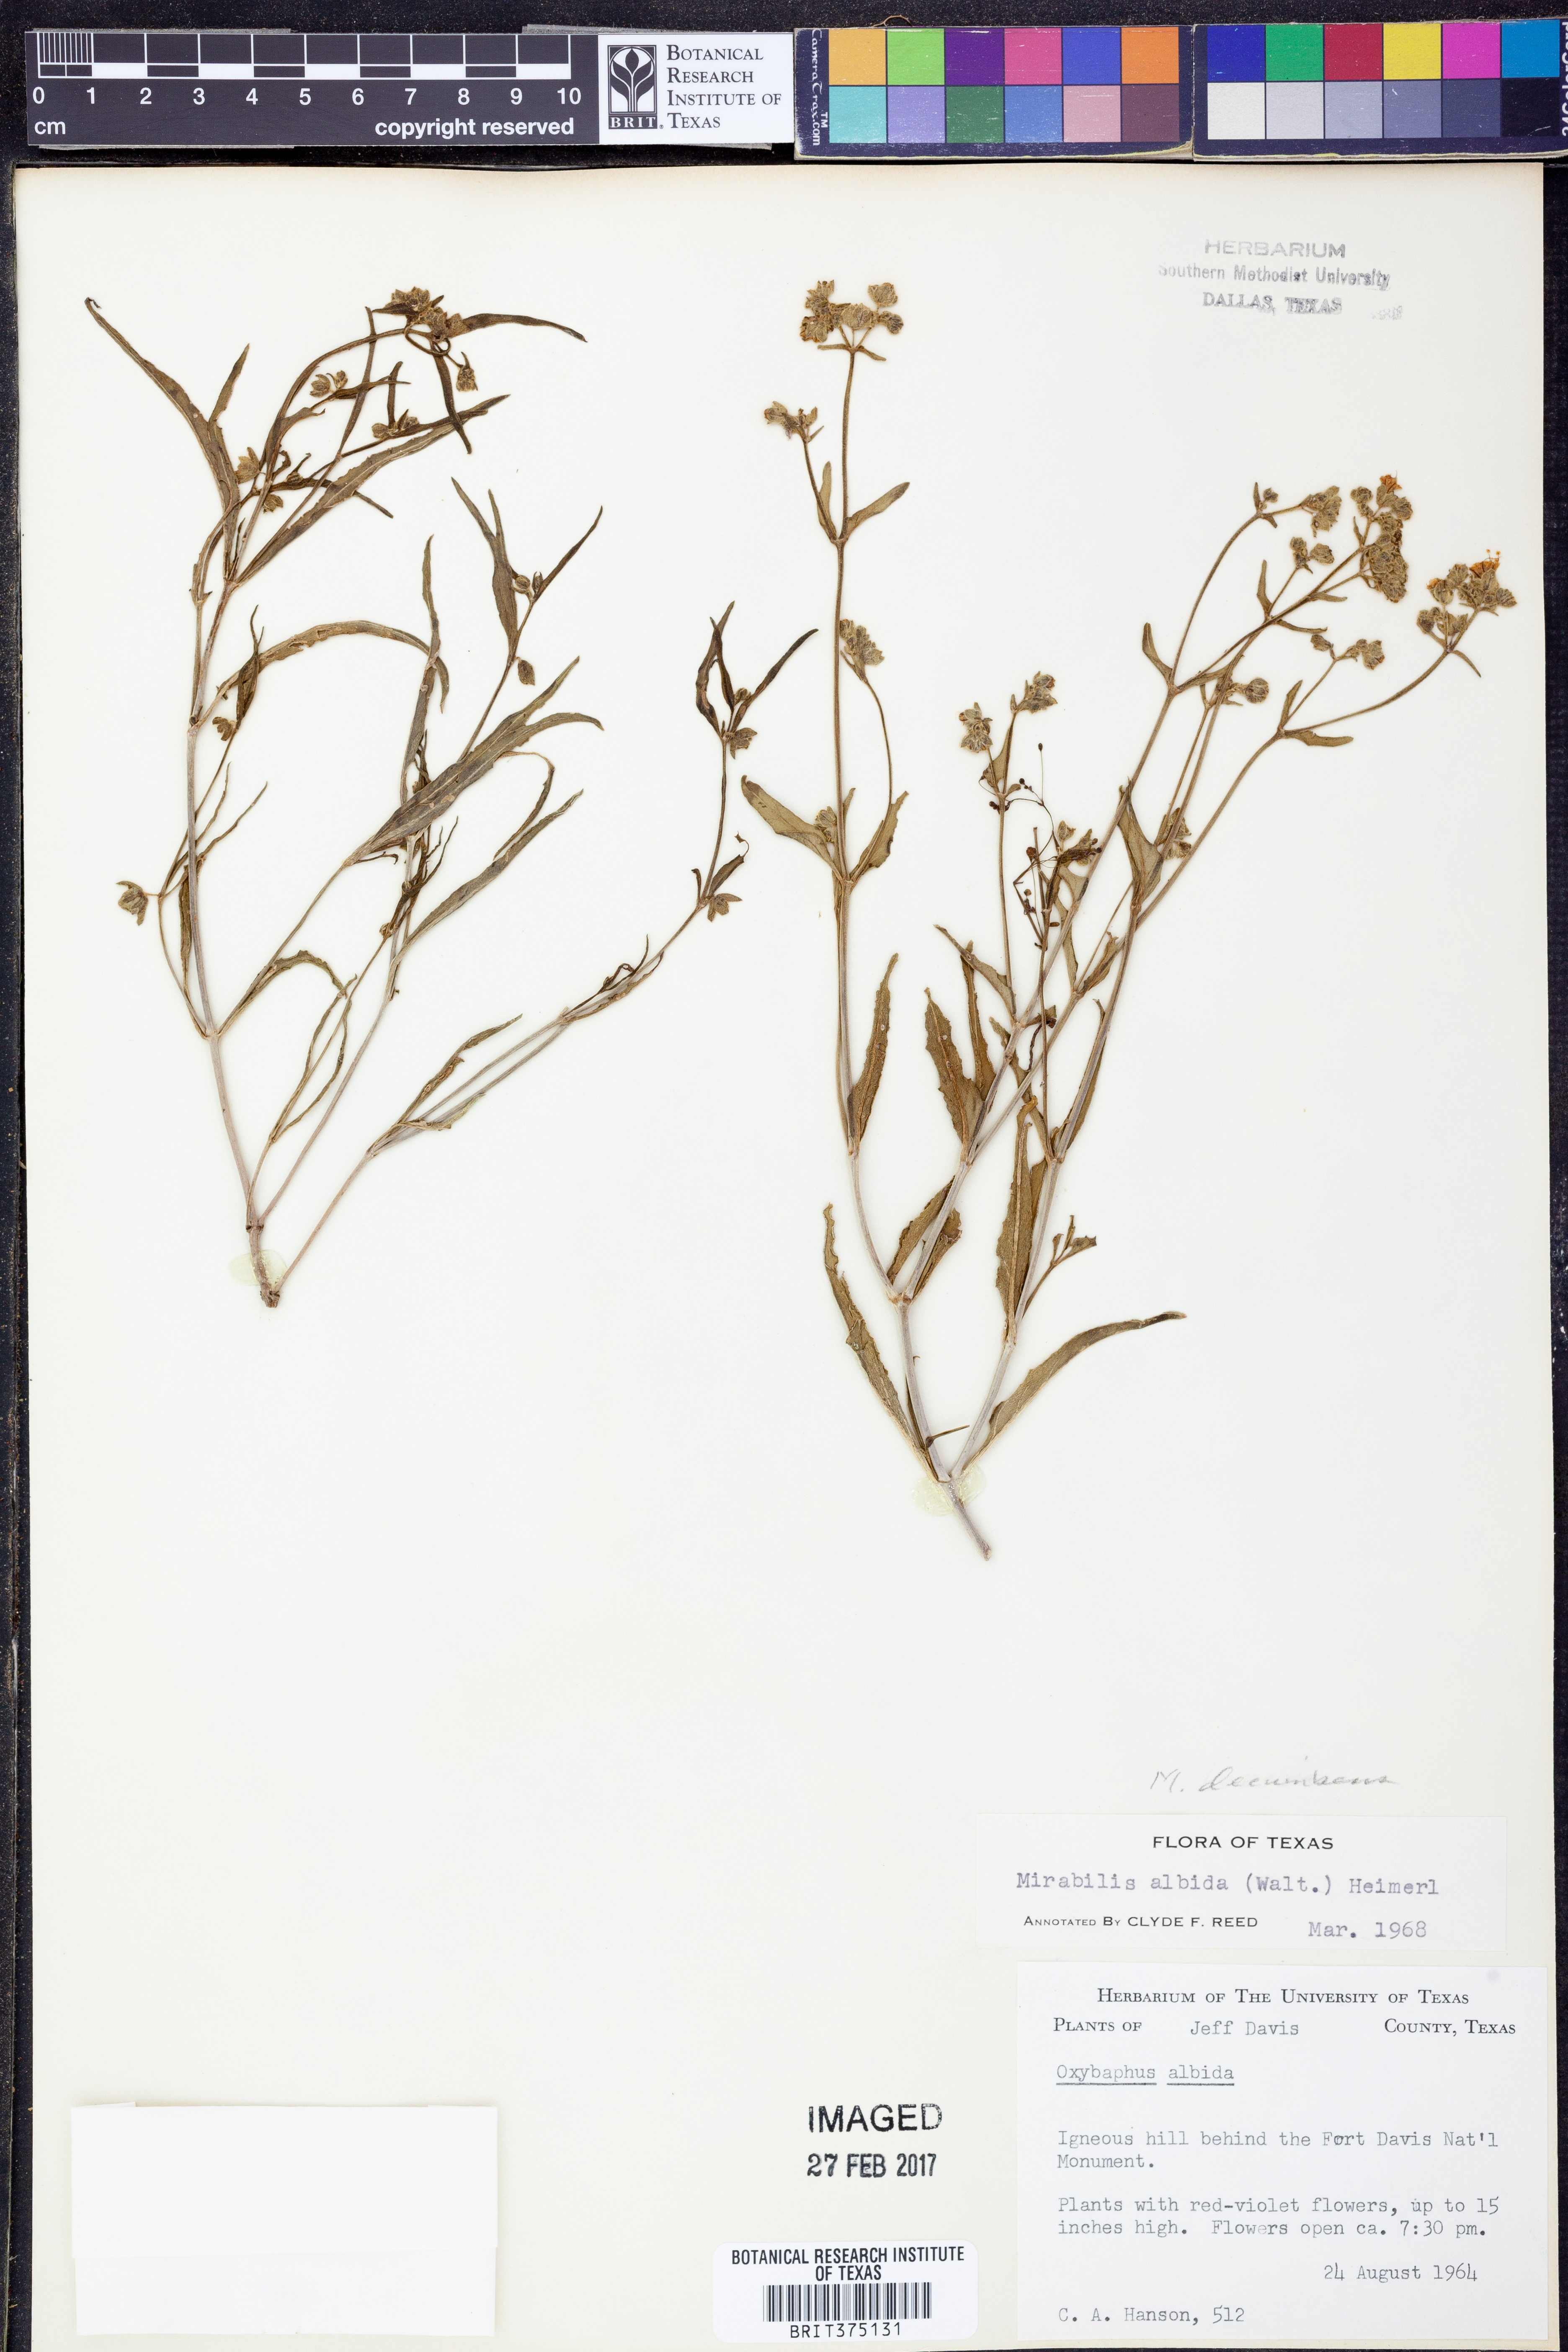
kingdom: Plantae
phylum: Tracheophyta
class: Magnoliopsida
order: Caryophyllales
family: Nyctaginaceae
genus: Mirabilis
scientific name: Mirabilis albida
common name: Hairy four-o'clock
